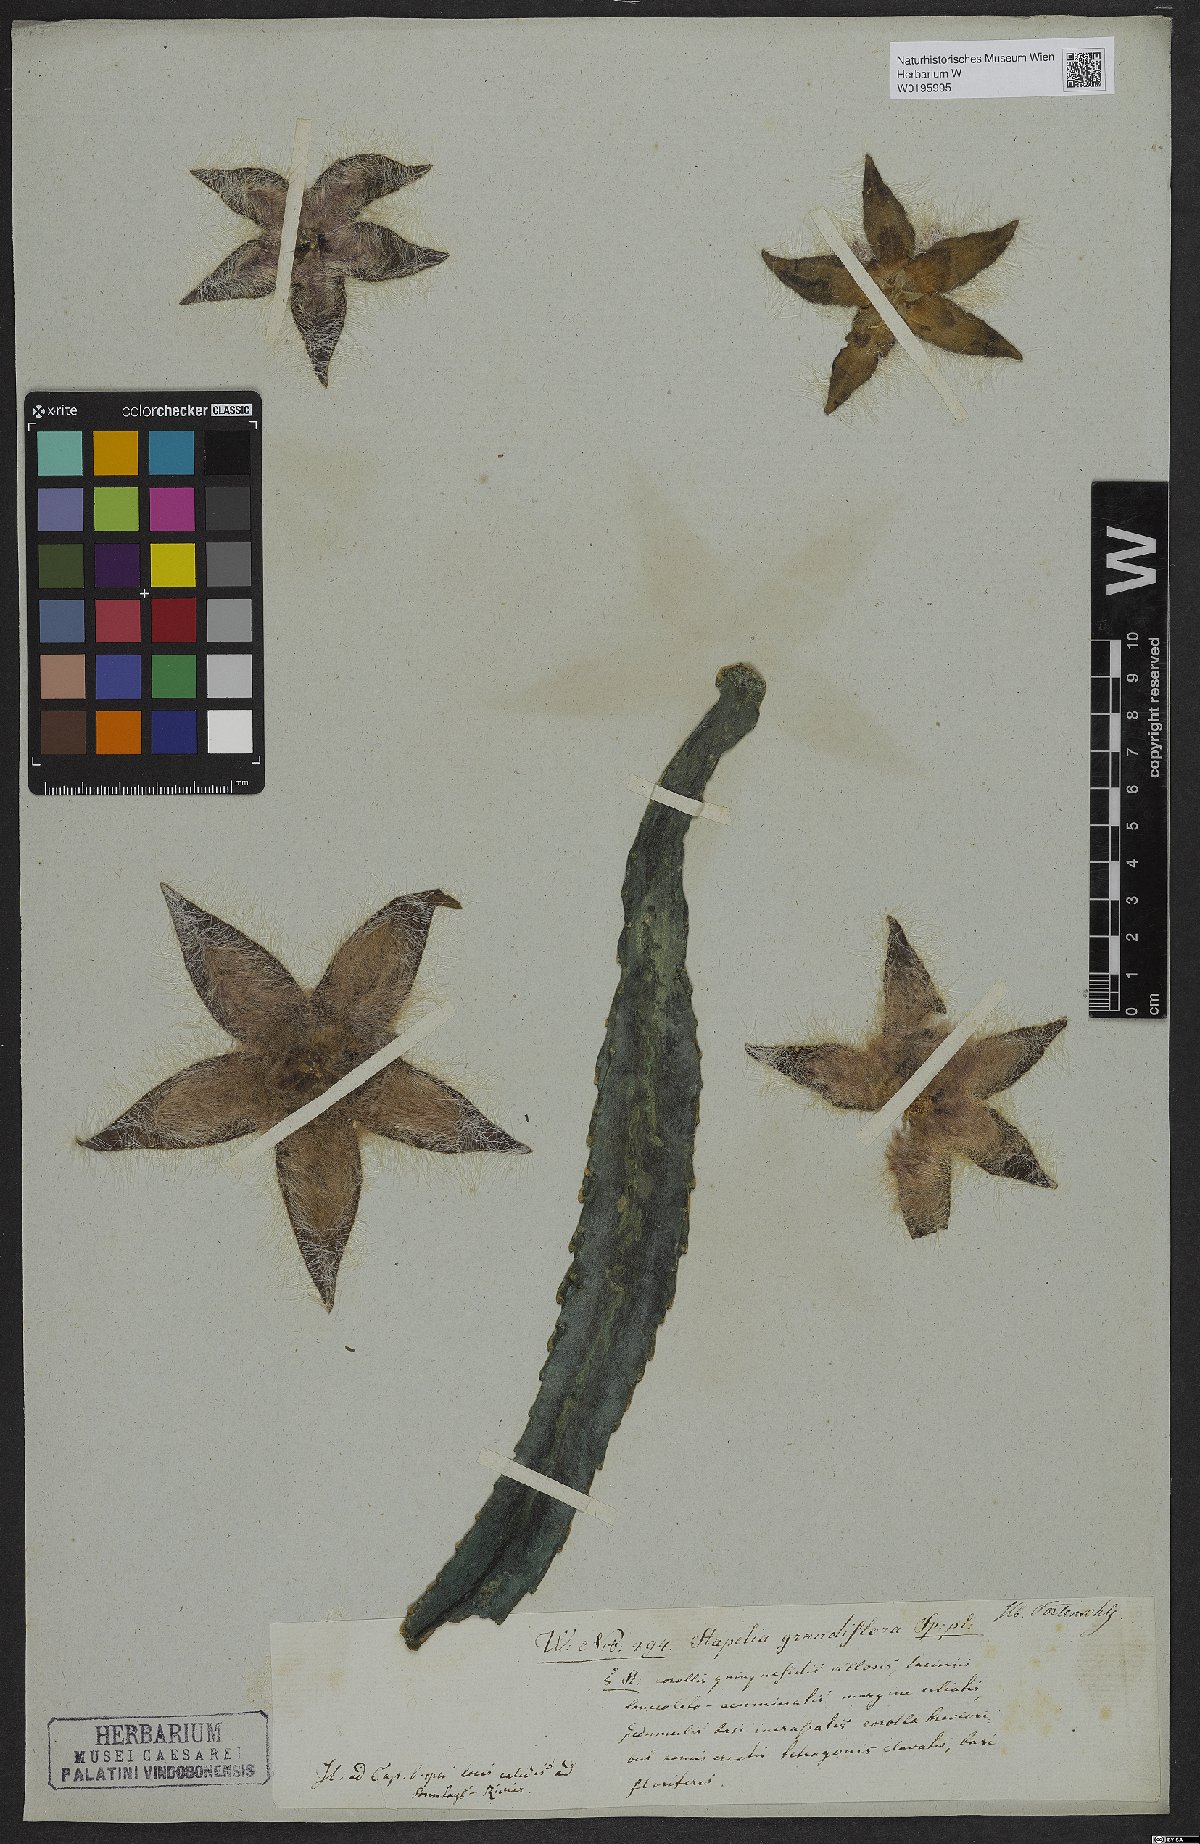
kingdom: Plantae
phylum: Tracheophyta
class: Magnoliopsida
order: Gentianales
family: Apocynaceae
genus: Ceropegia
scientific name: Ceropegia grandiflora
